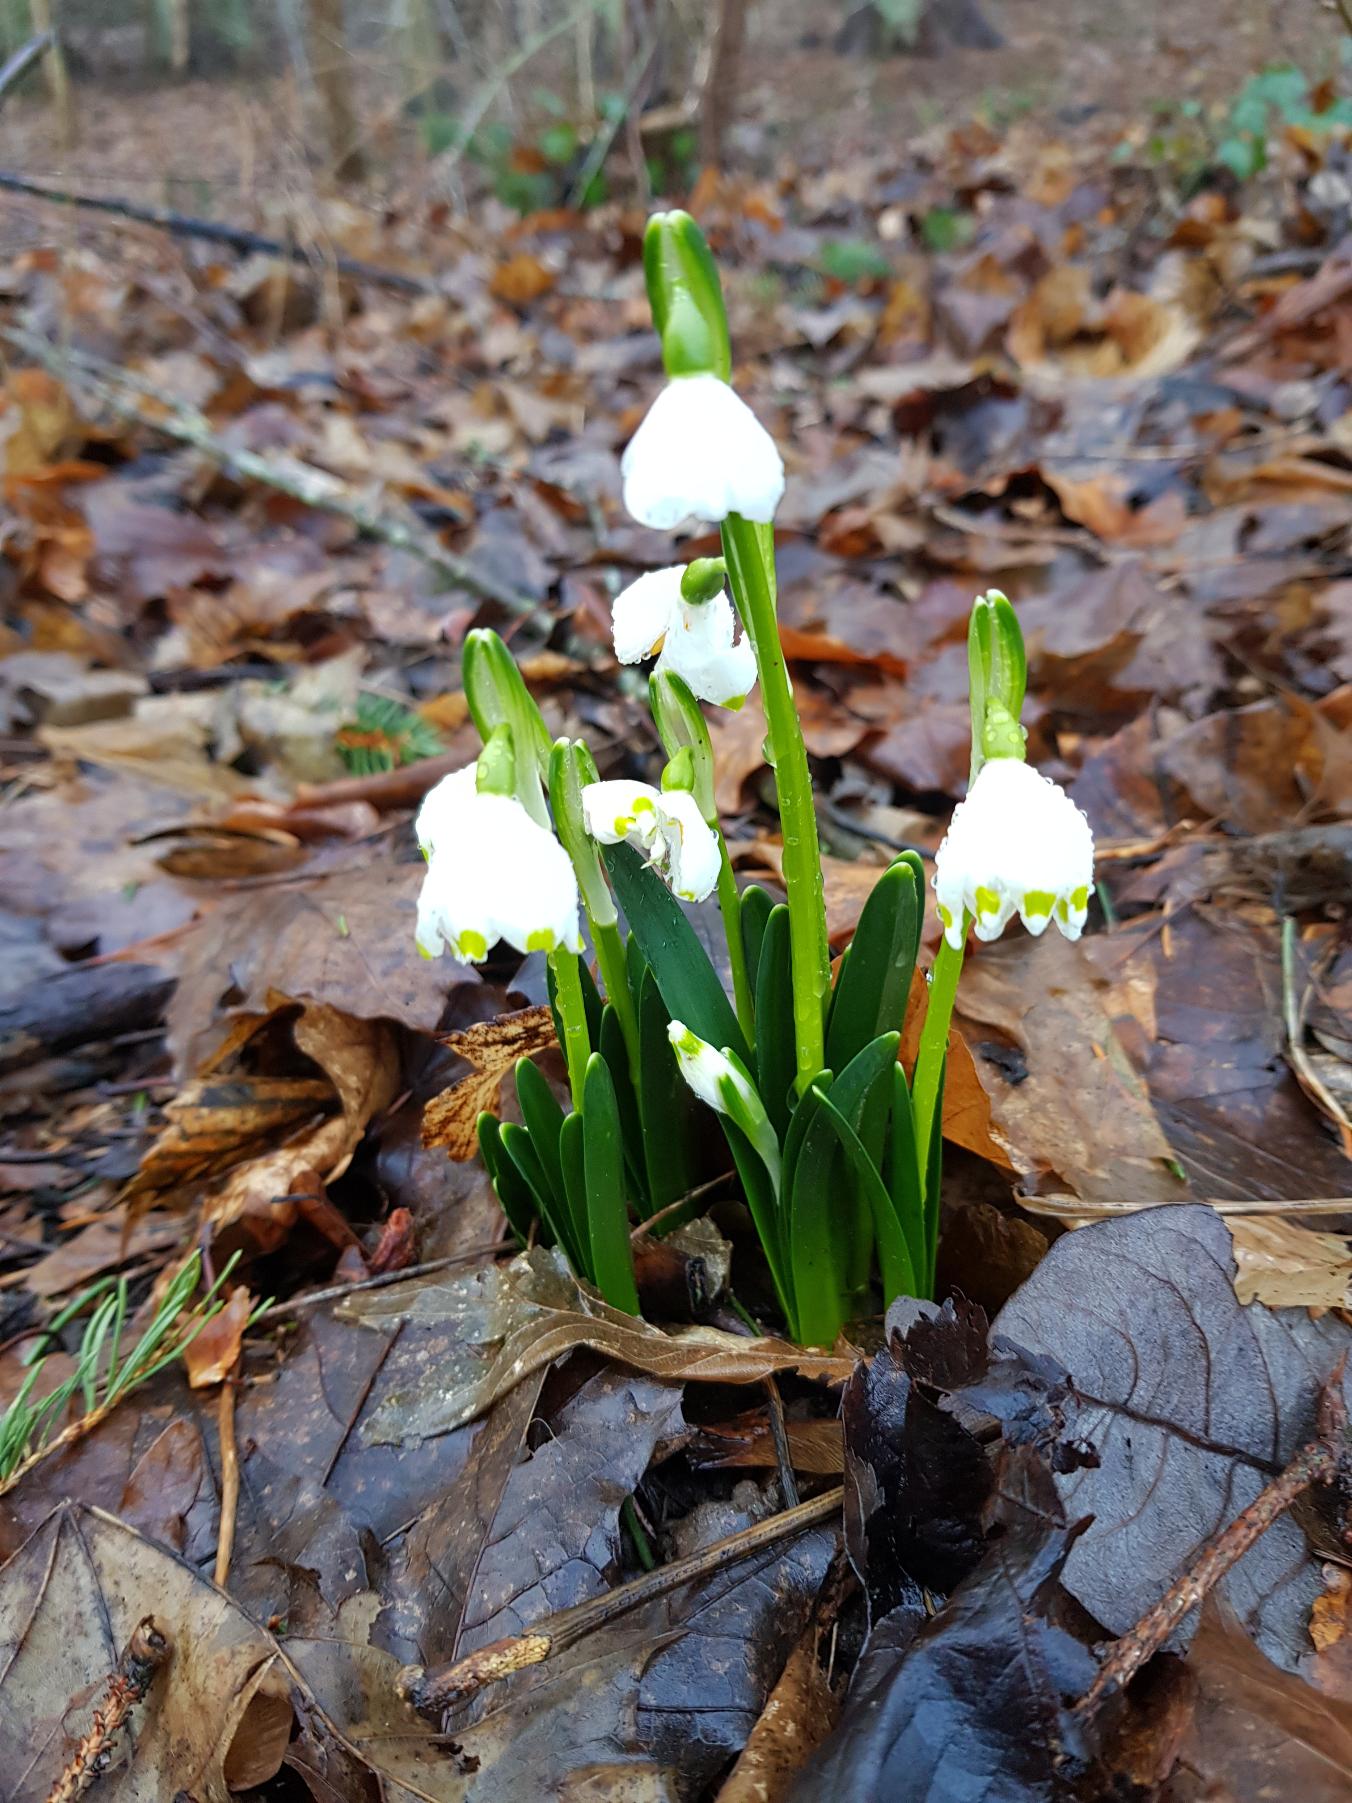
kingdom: Plantae
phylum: Tracheophyta
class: Liliopsida
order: Asparagales
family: Amaryllidaceae
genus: Leucojum
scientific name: Leucojum vernum
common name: Dorthealilje
